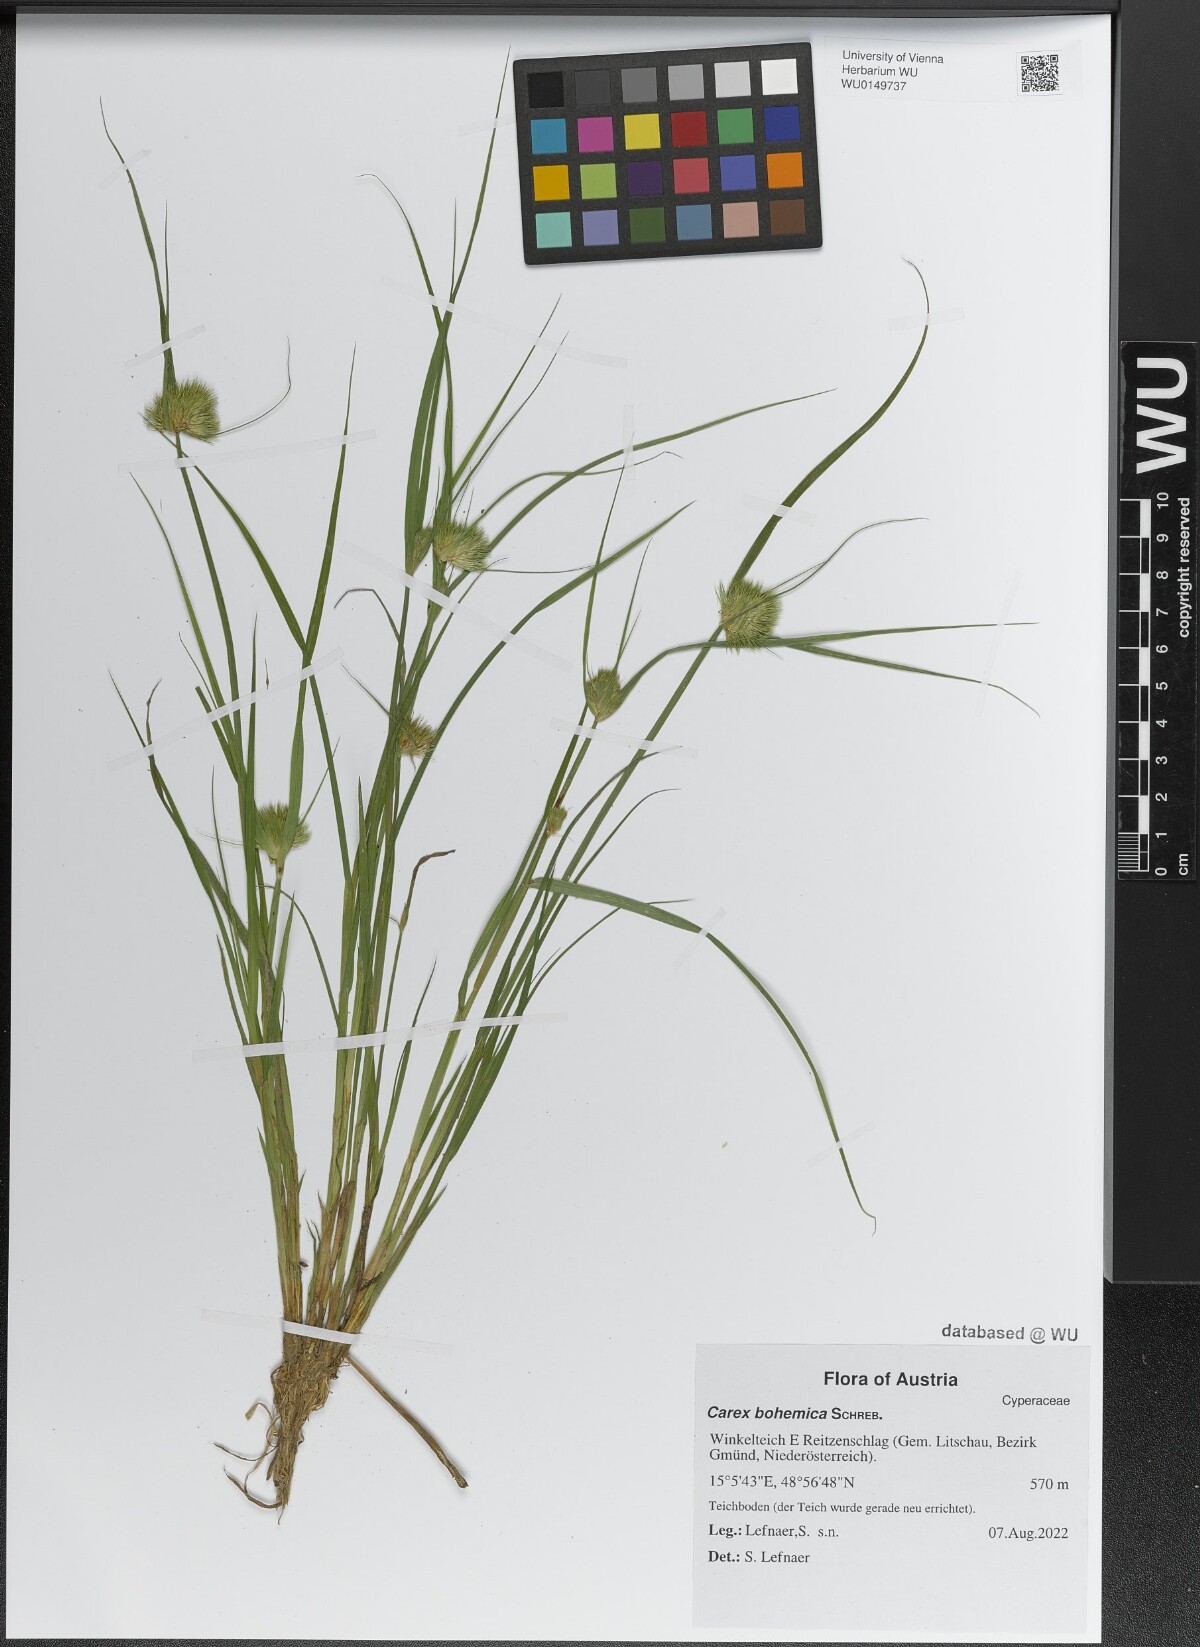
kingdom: Plantae
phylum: Tracheophyta
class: Liliopsida
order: Poales
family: Cyperaceae
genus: Carex
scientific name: Carex bohemica
